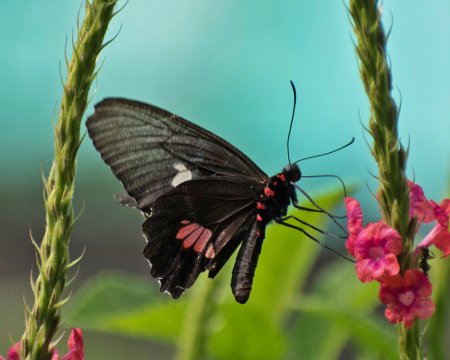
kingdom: Animalia
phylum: Arthropoda
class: Insecta
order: Lepidoptera
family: Papilionidae
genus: Parides
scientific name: Parides anchises
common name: Anchises Cattleheart
